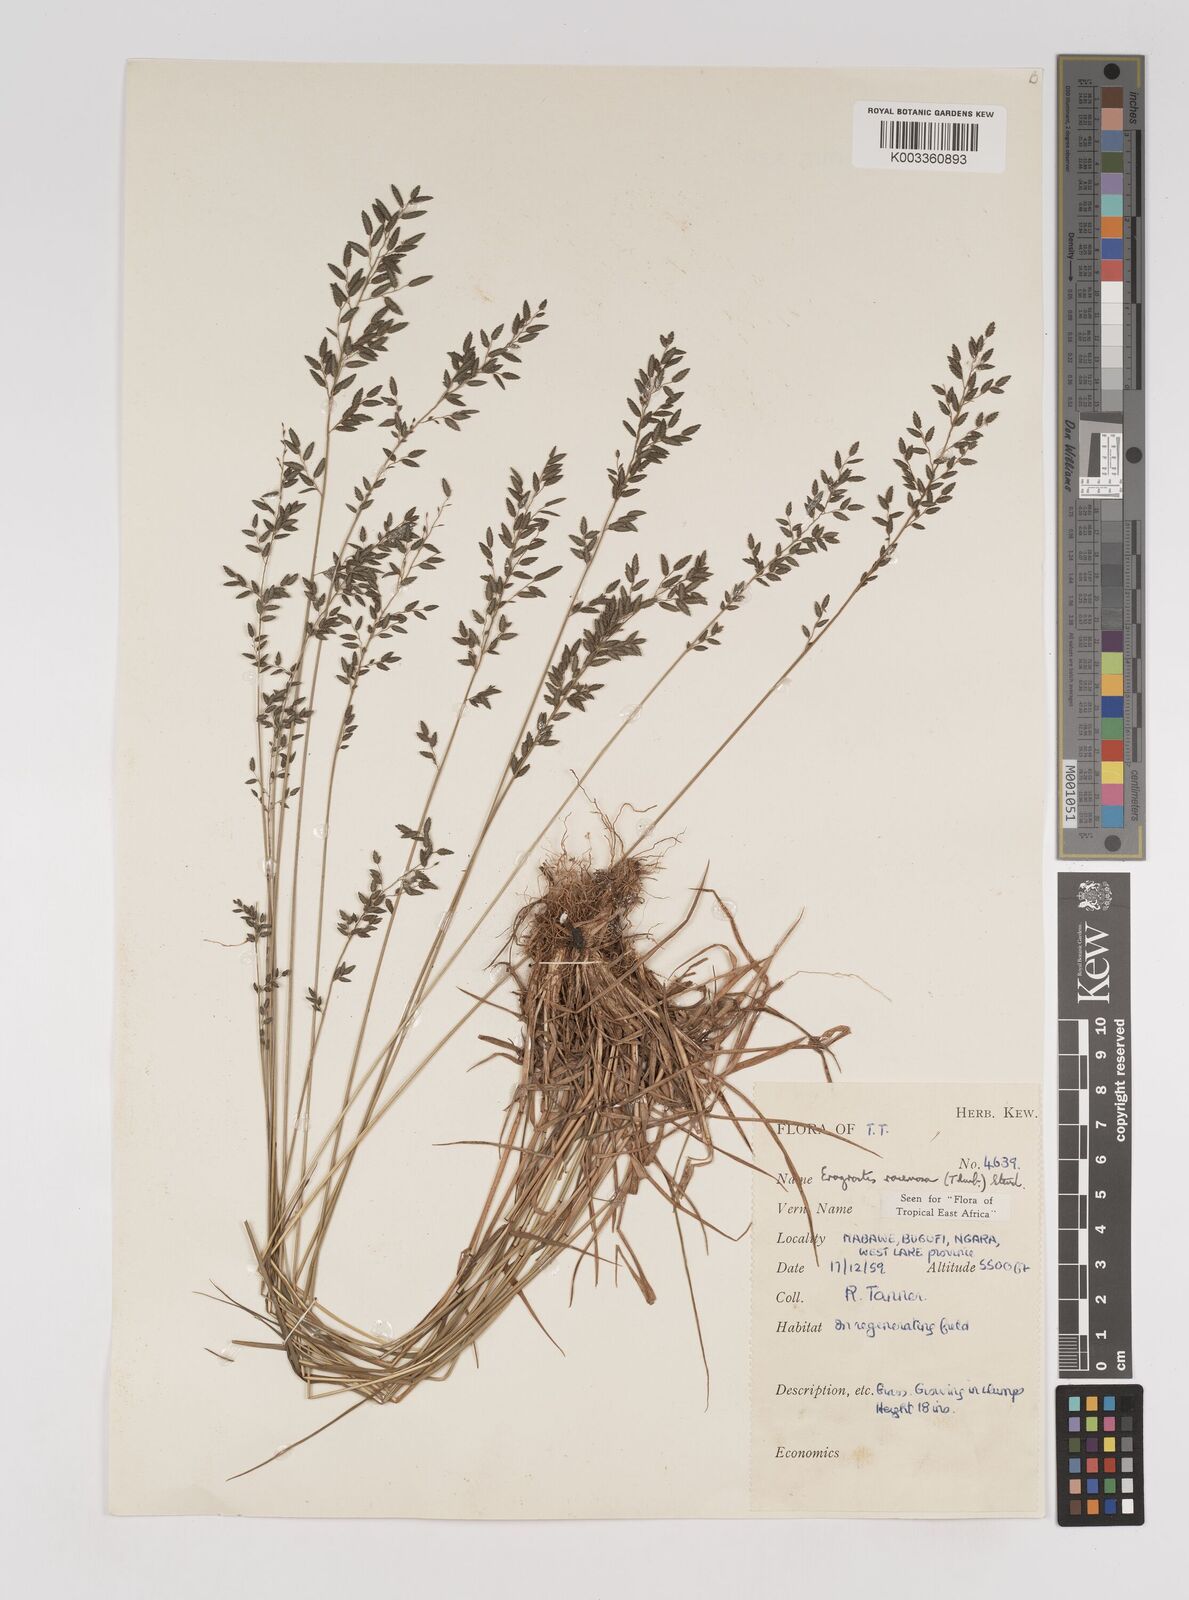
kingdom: Plantae
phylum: Tracheophyta
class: Liliopsida
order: Poales
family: Poaceae
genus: Eragrostis
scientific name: Eragrostis racemosa
